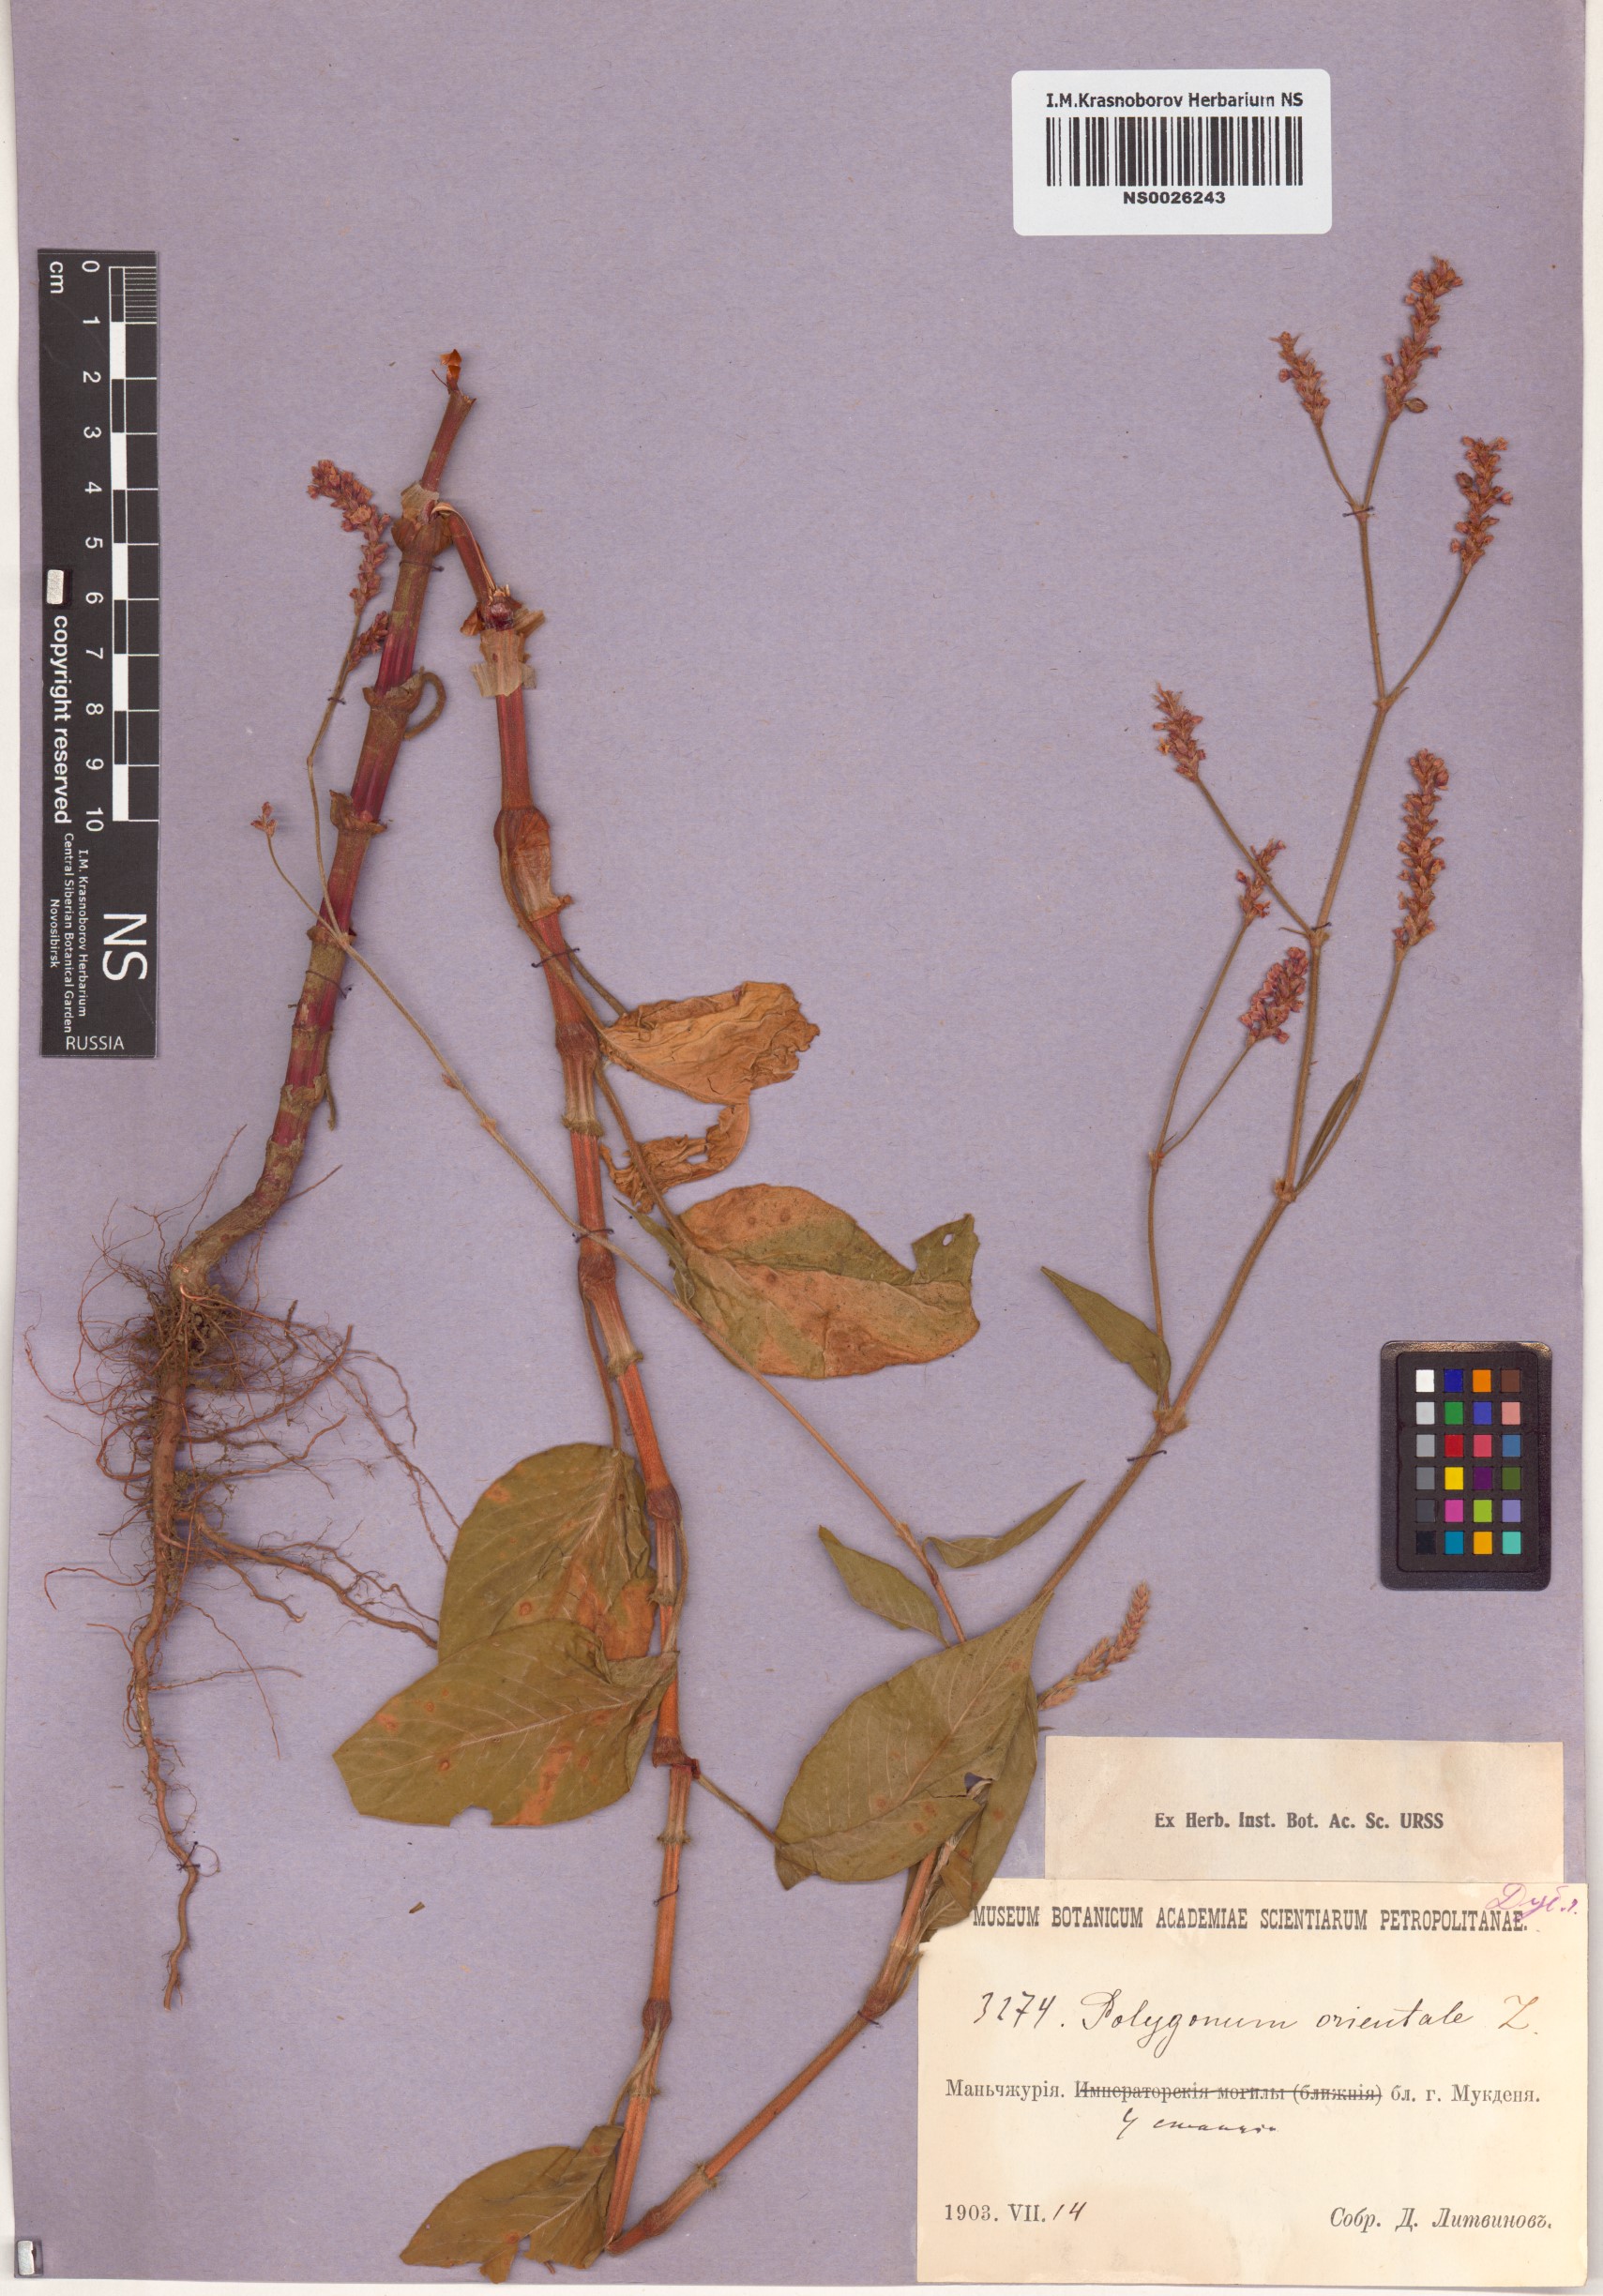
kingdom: Plantae
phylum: Tracheophyta
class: Magnoliopsida
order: Caryophyllales
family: Polygonaceae
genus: Persicaria
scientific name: Persicaria orientalis
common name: Kiss-me-over-the-garden-gate
